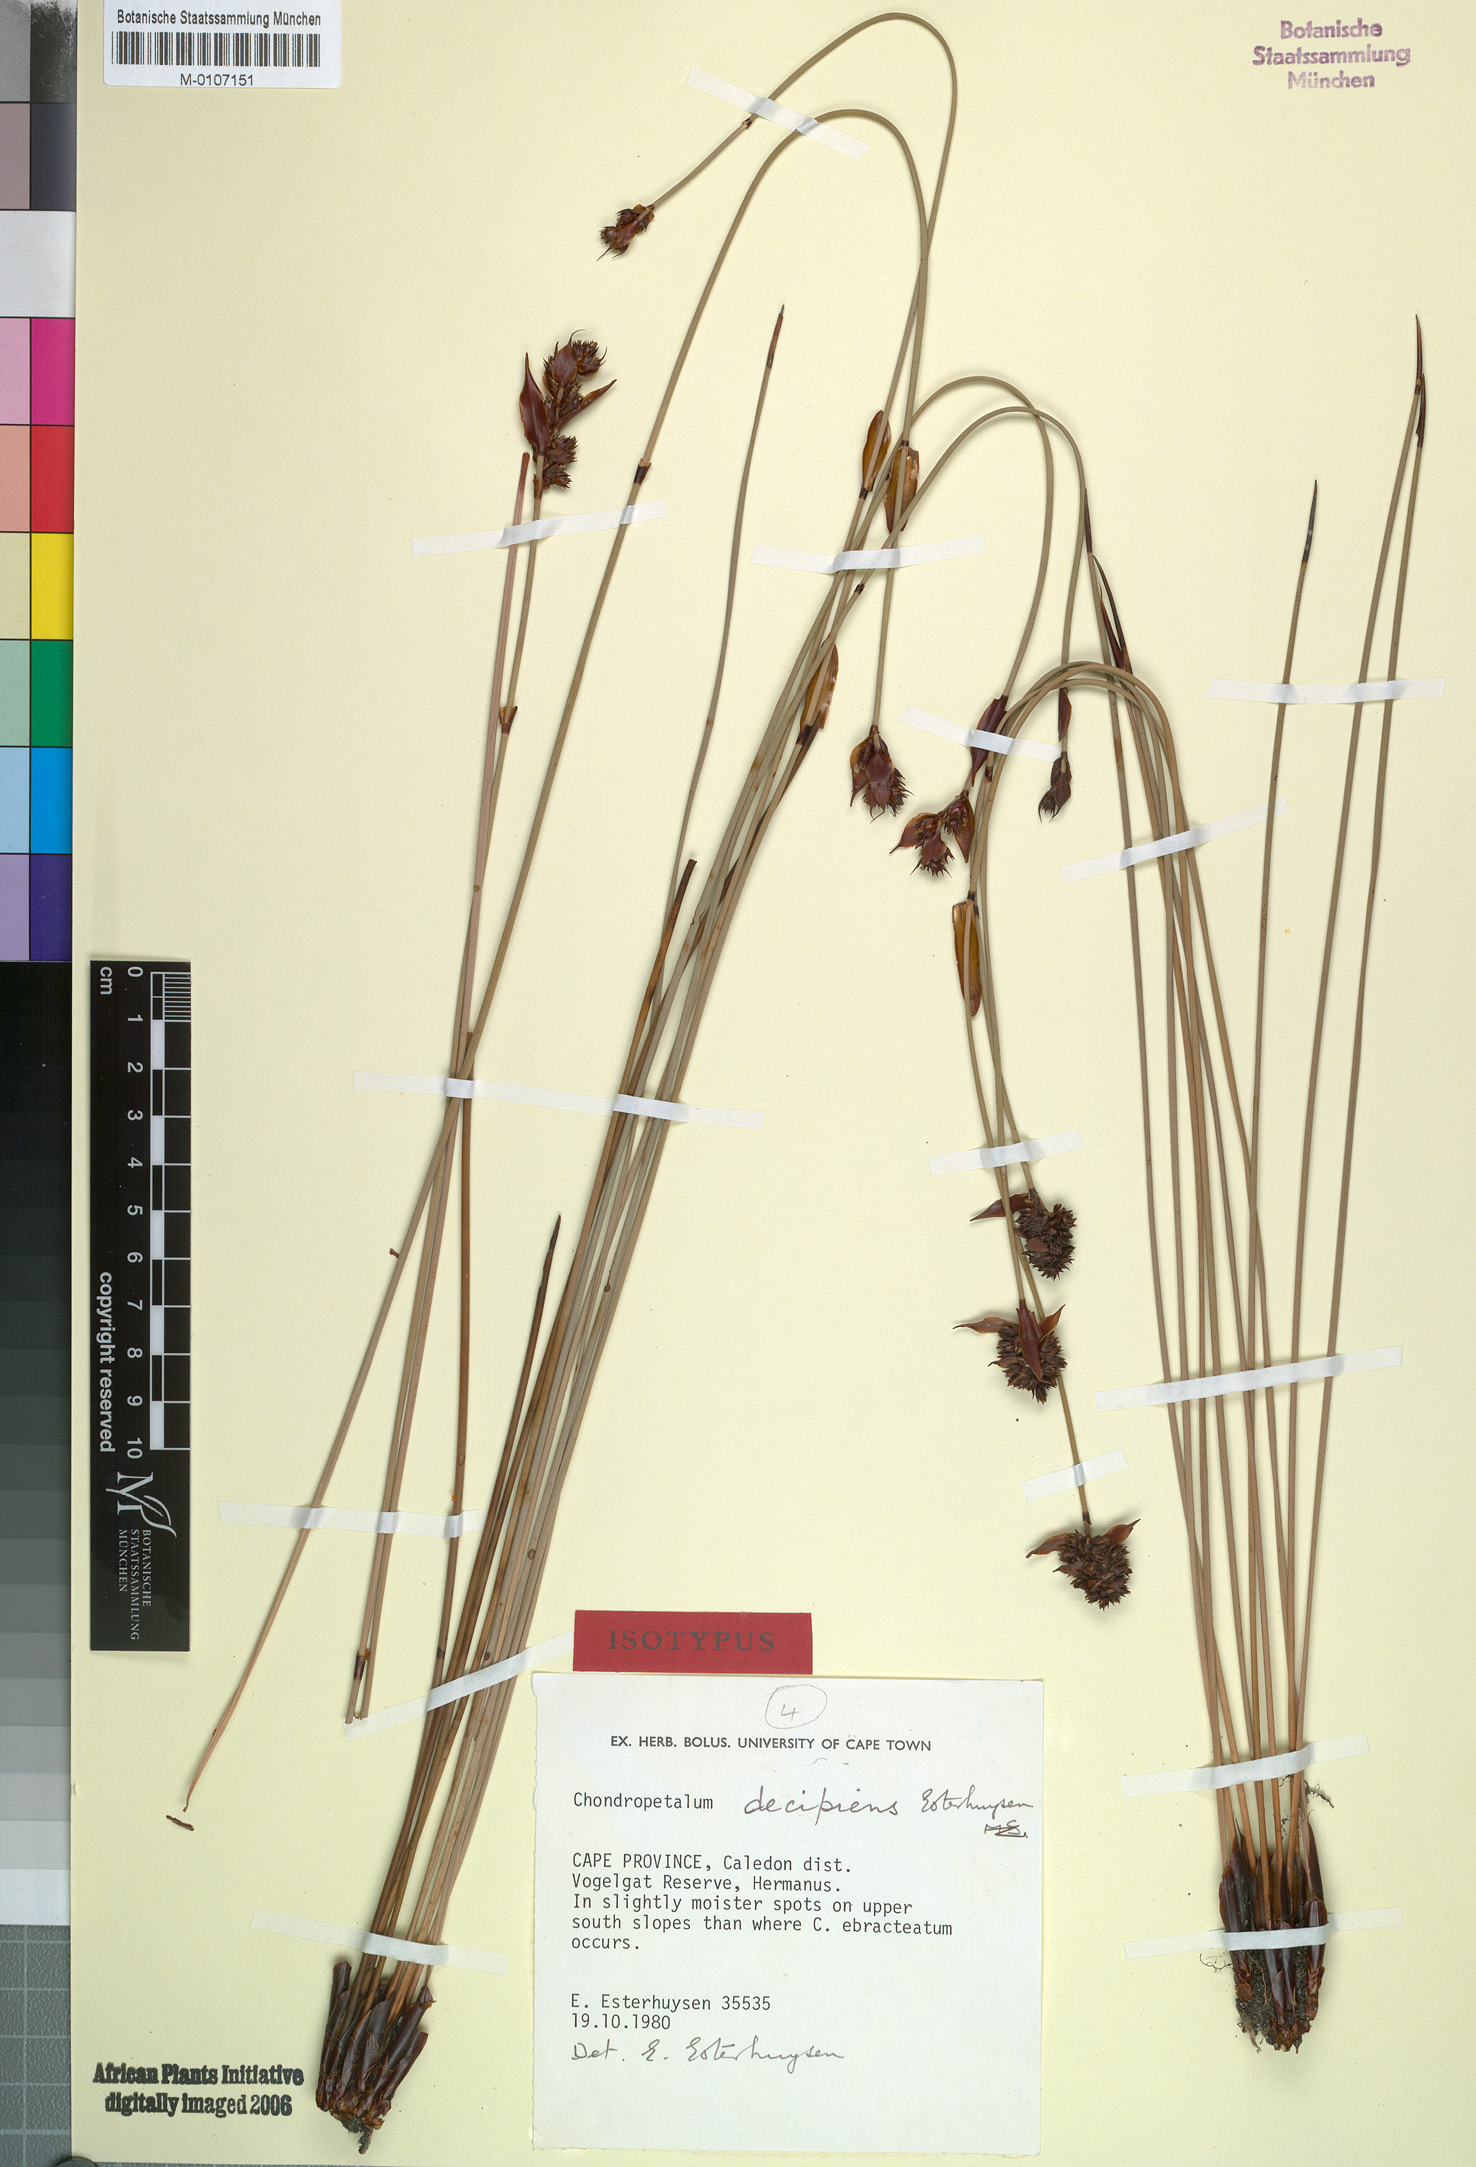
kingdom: Plantae
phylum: Tracheophyta
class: Liliopsida
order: Poales
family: Restionaceae
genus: Elegia
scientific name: Elegia decipiens
